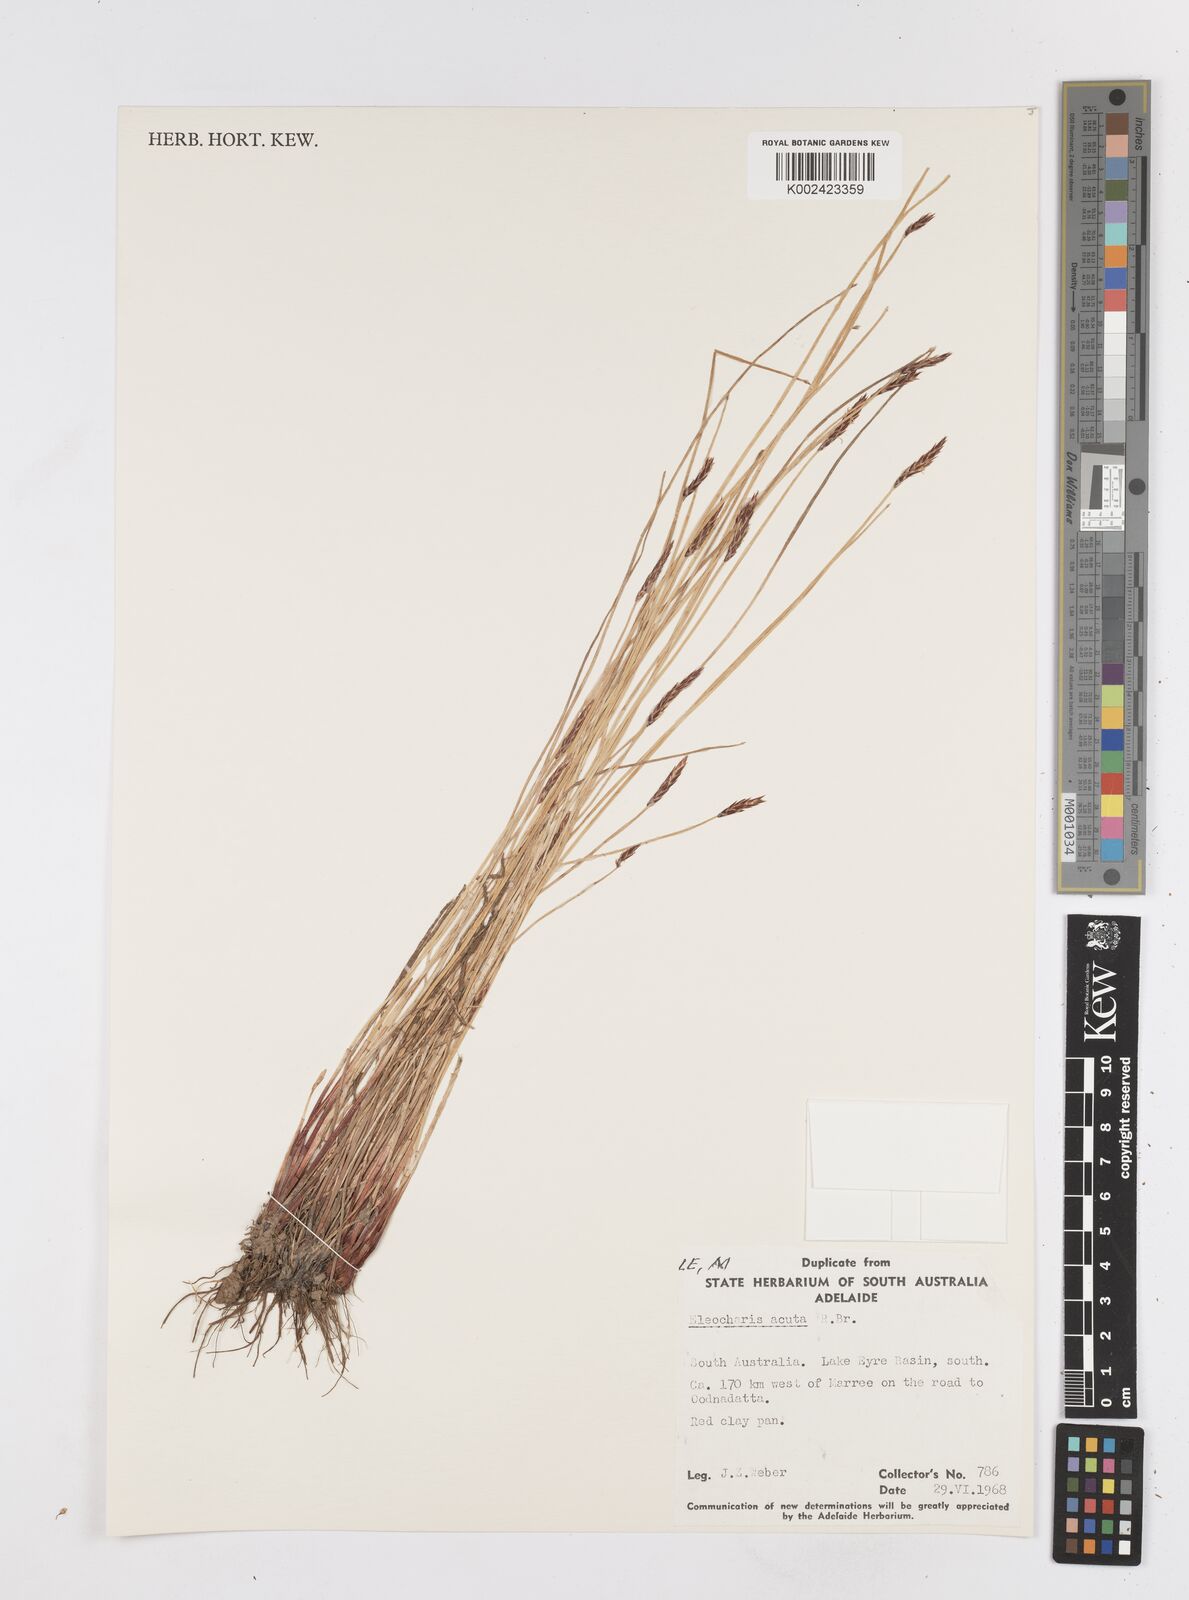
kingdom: Plantae
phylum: Tracheophyta
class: Liliopsida
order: Poales
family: Cyperaceae
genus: Eleocharis
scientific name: Eleocharis acuta
